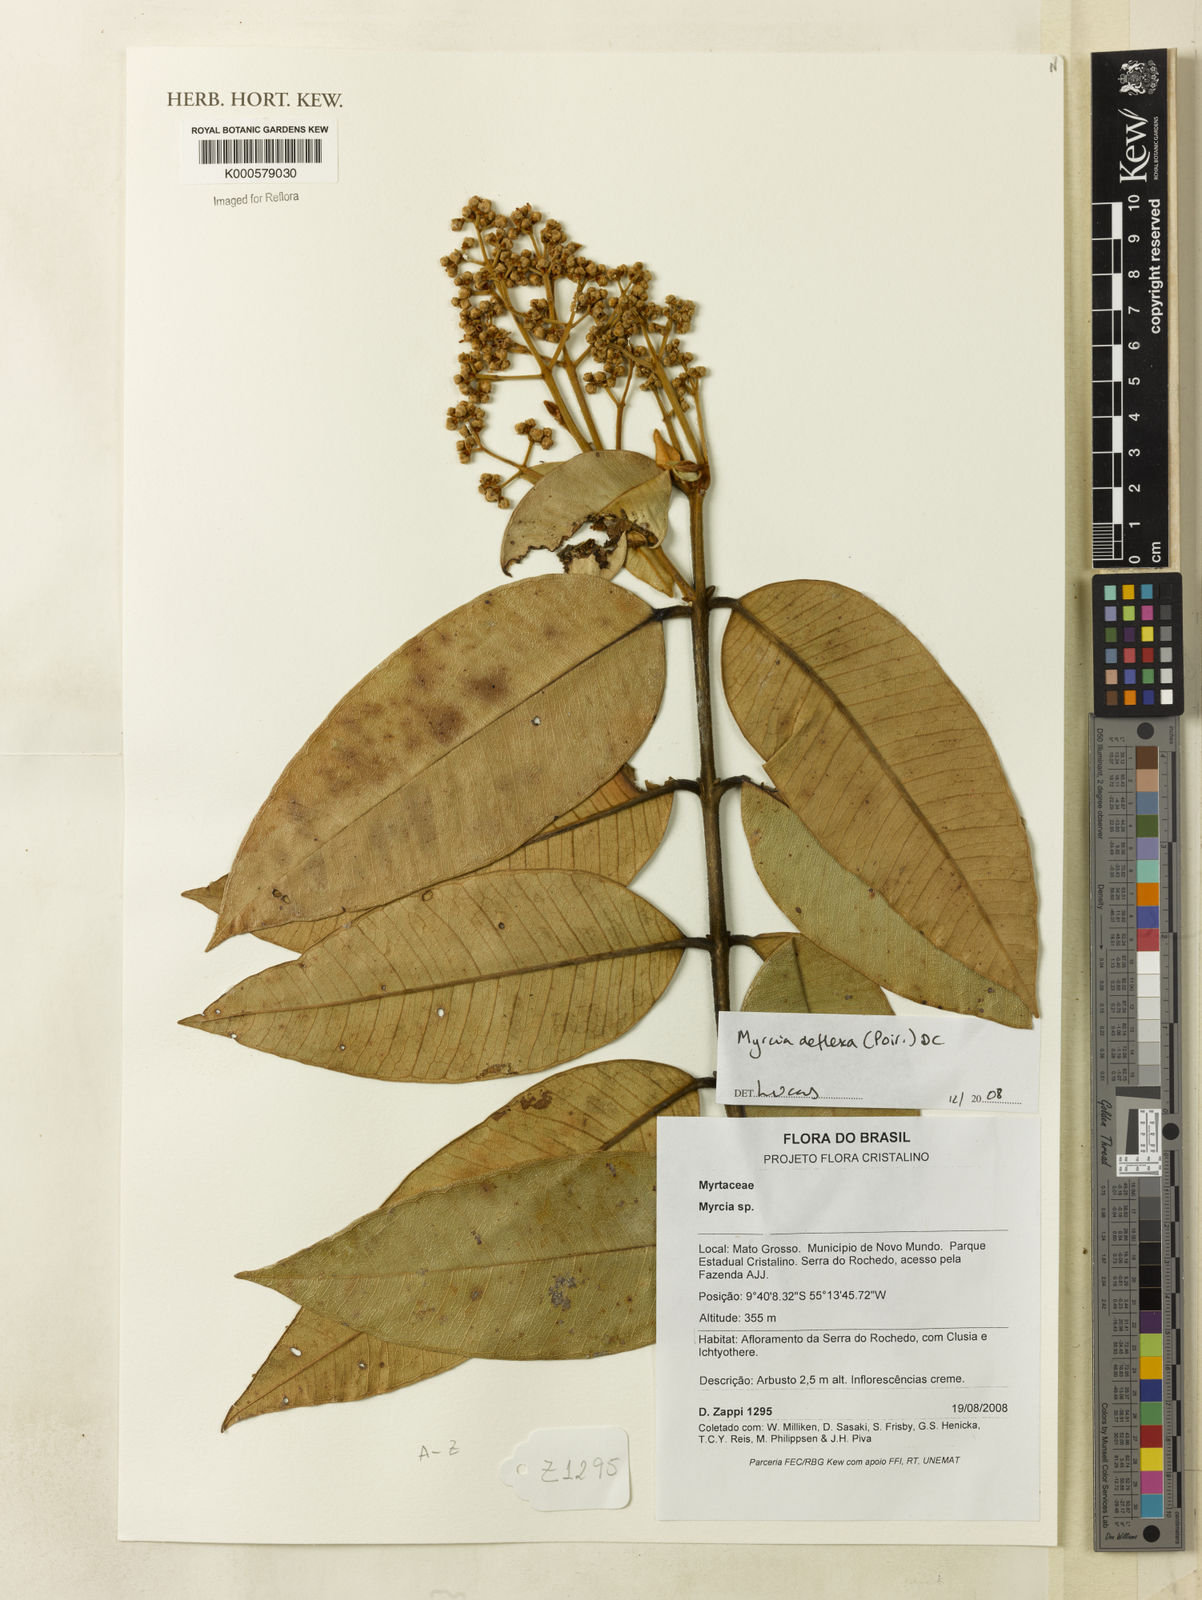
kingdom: Plantae
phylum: Tracheophyta
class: Magnoliopsida
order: Myrtales
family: Myrtaceae
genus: Myrcia
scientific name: Myrcia deflexa
